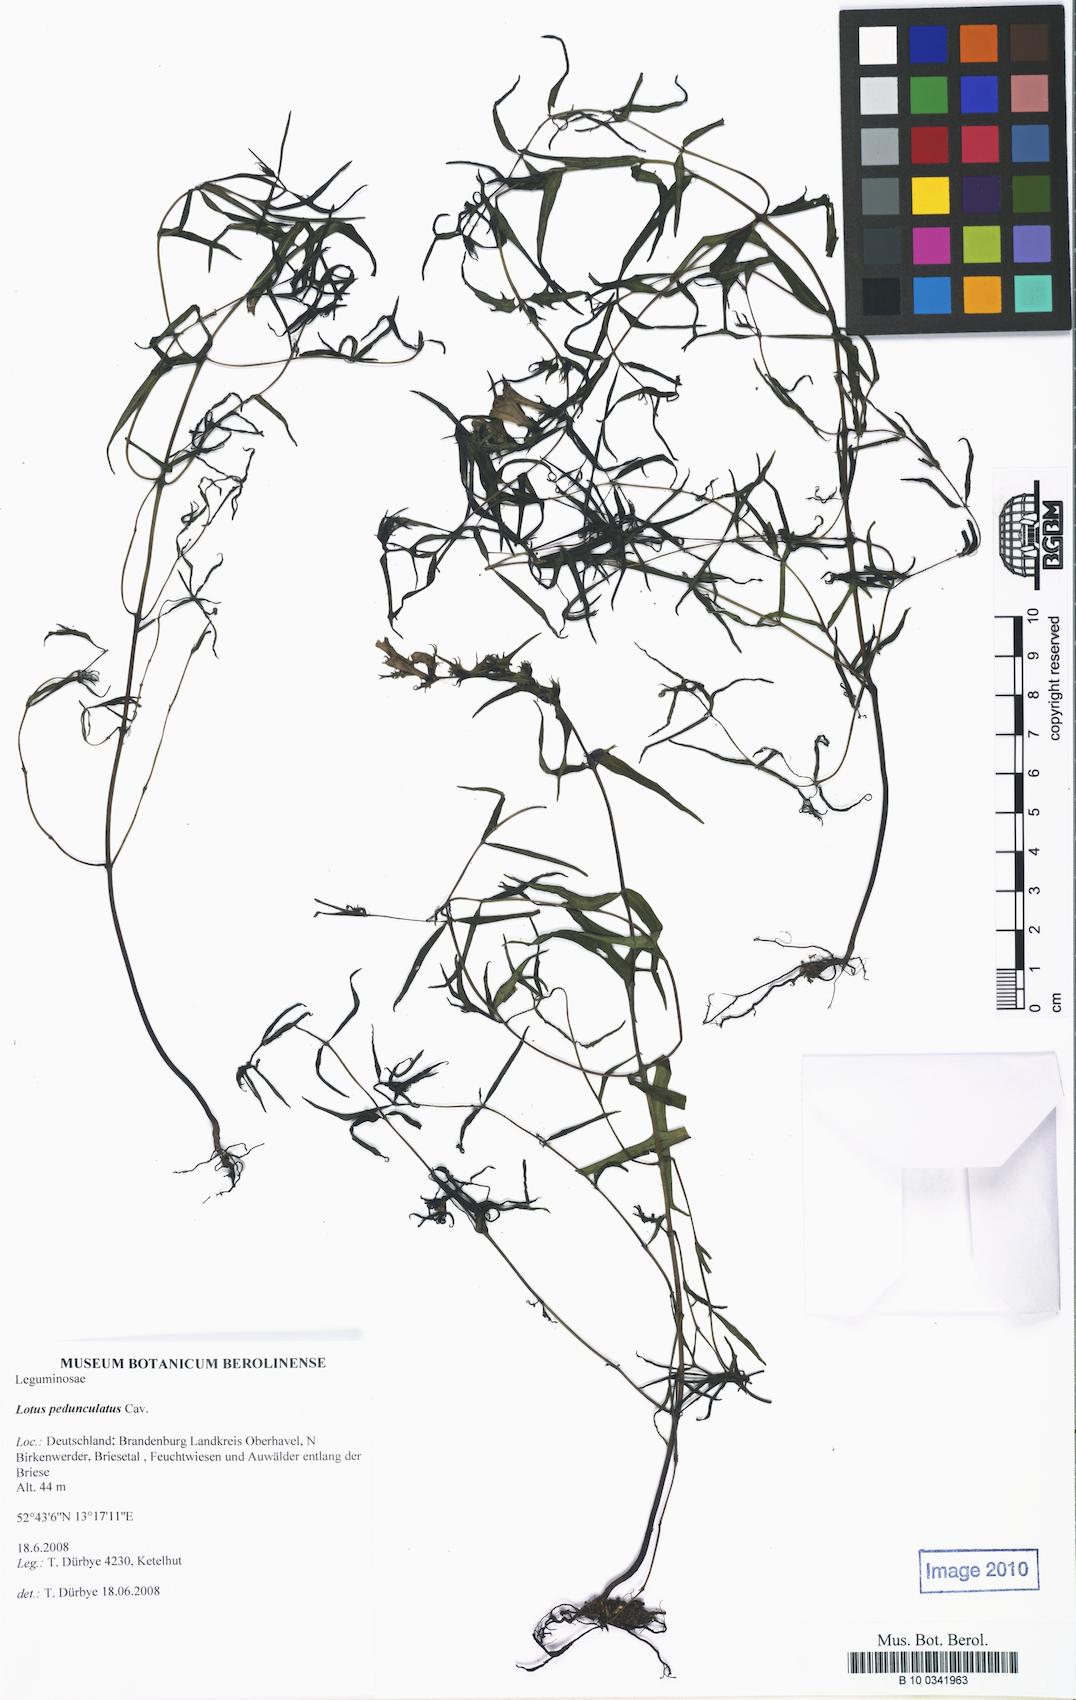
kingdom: Plantae
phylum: Tracheophyta
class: Magnoliopsida
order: Fabales
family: Fabaceae
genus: Lotus
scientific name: Lotus pedunculatus
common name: Greater birdsfoot-trefoil
